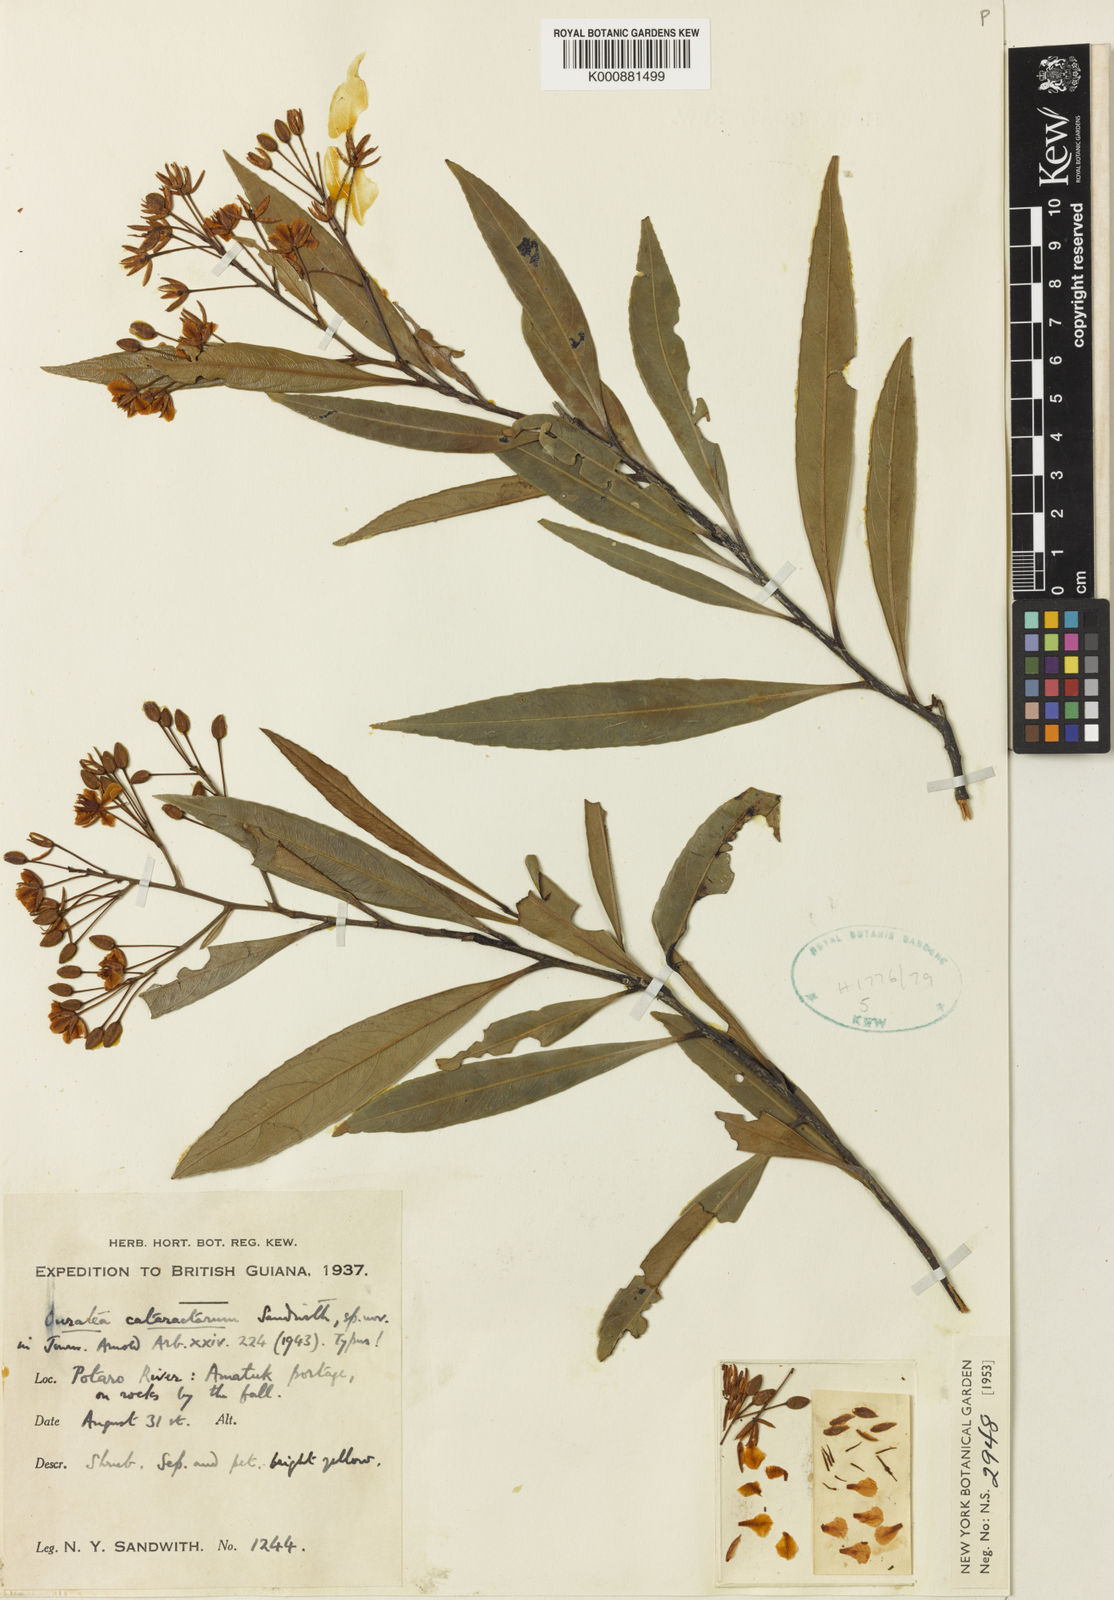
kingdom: Plantae
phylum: Tracheophyta
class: Magnoliopsida
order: Malpighiales
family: Ochnaceae
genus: Ouratea
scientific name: Ouratea cataractarum
